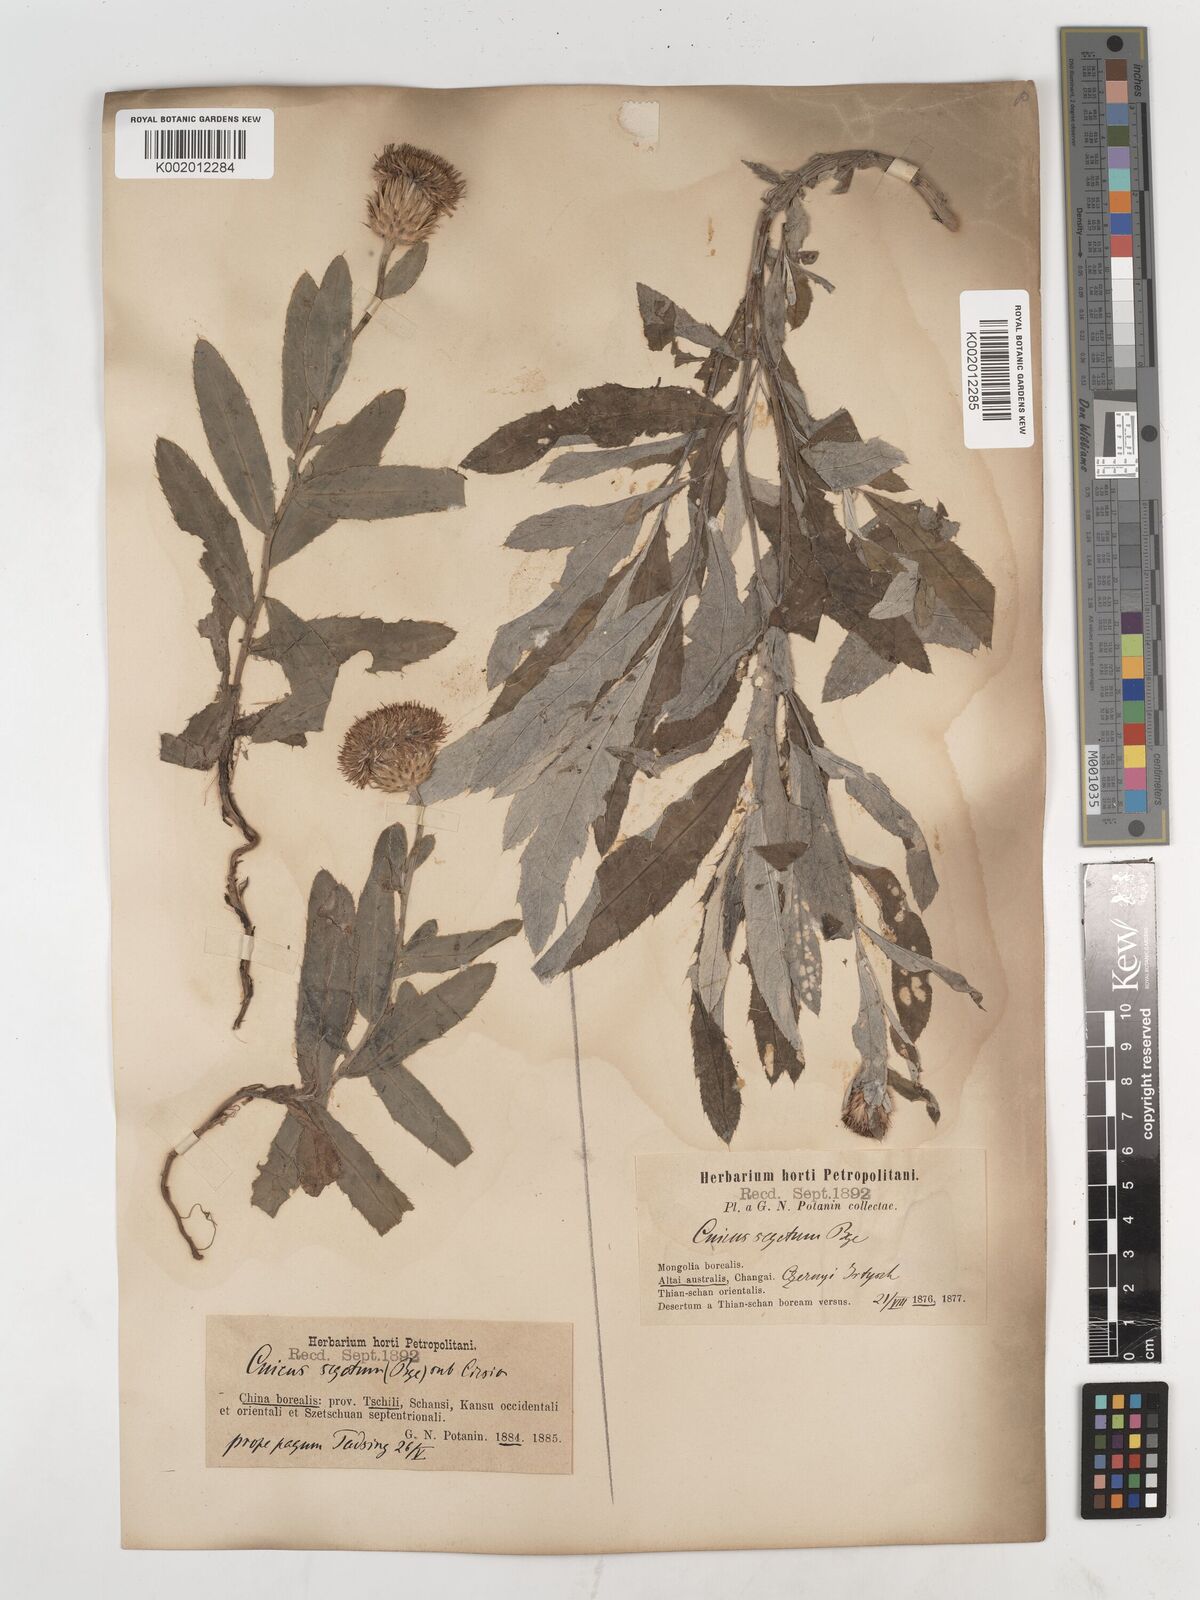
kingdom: Plantae
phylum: Tracheophyta
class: Magnoliopsida
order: Asterales
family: Asteraceae
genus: Cirsium
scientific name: Cirsium arvense
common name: Creeping thistle
